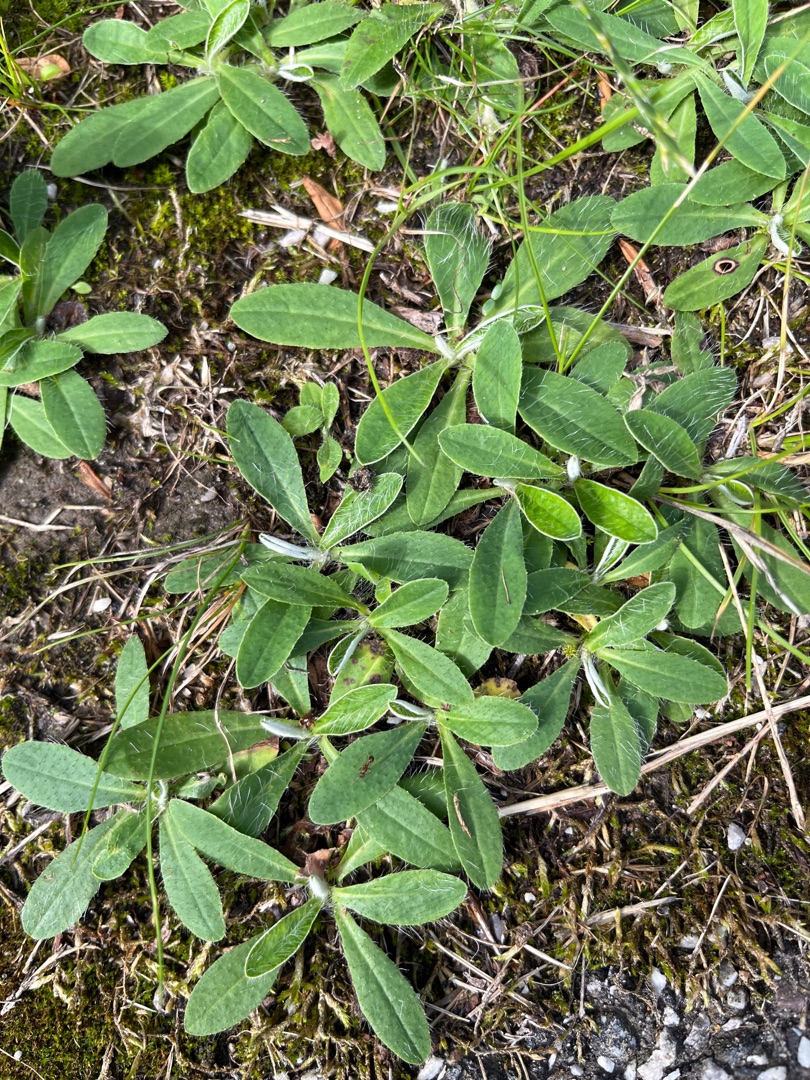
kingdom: Plantae
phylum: Tracheophyta
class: Magnoliopsida
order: Asterales
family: Asteraceae
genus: Pilosella
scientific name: Pilosella officinarum
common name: Håret høgeurt
